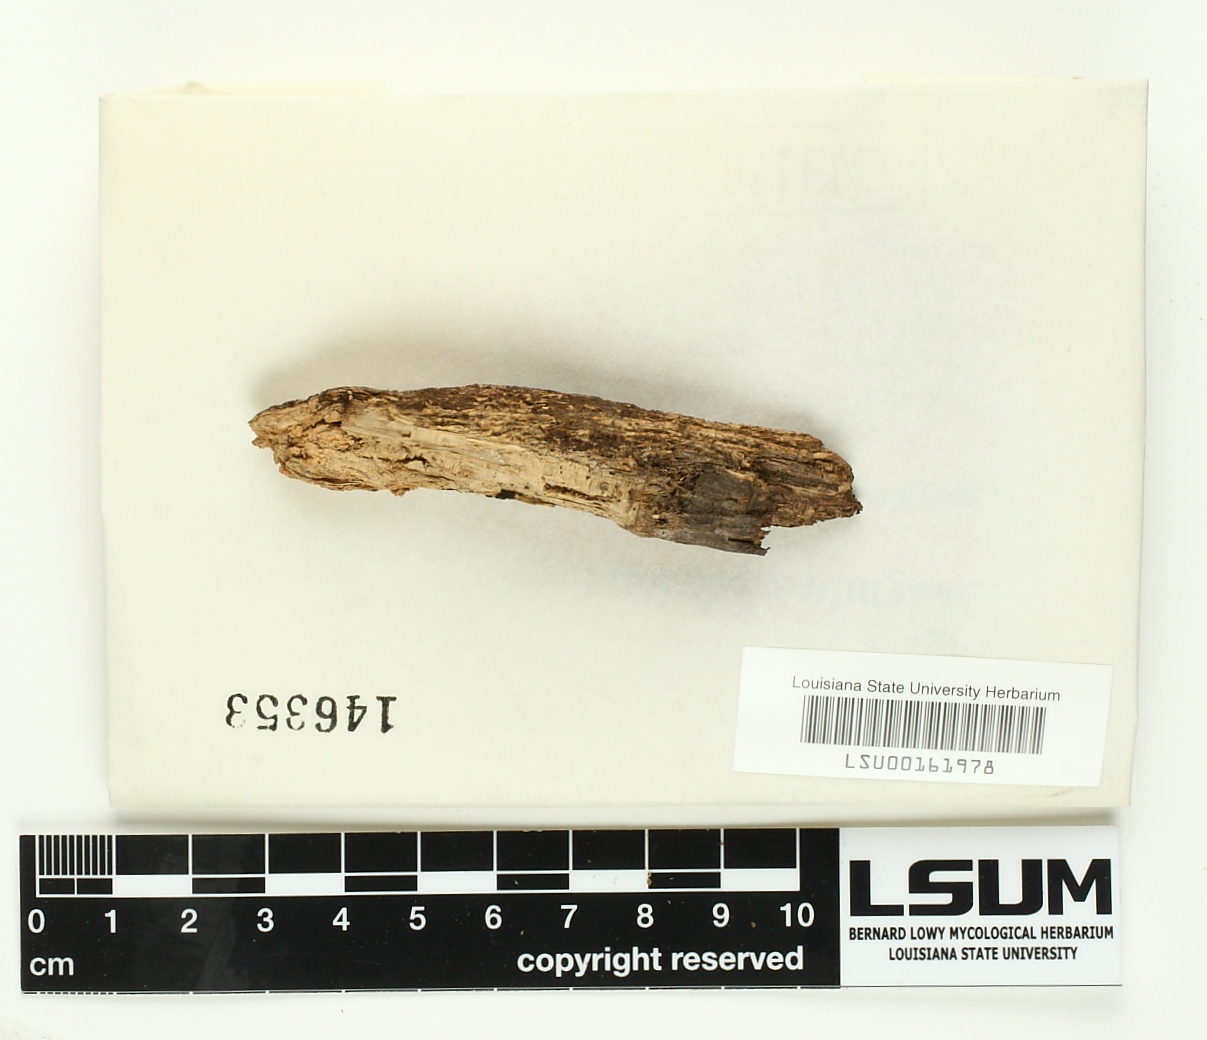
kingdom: Fungi
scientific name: Fungi
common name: Fungi
